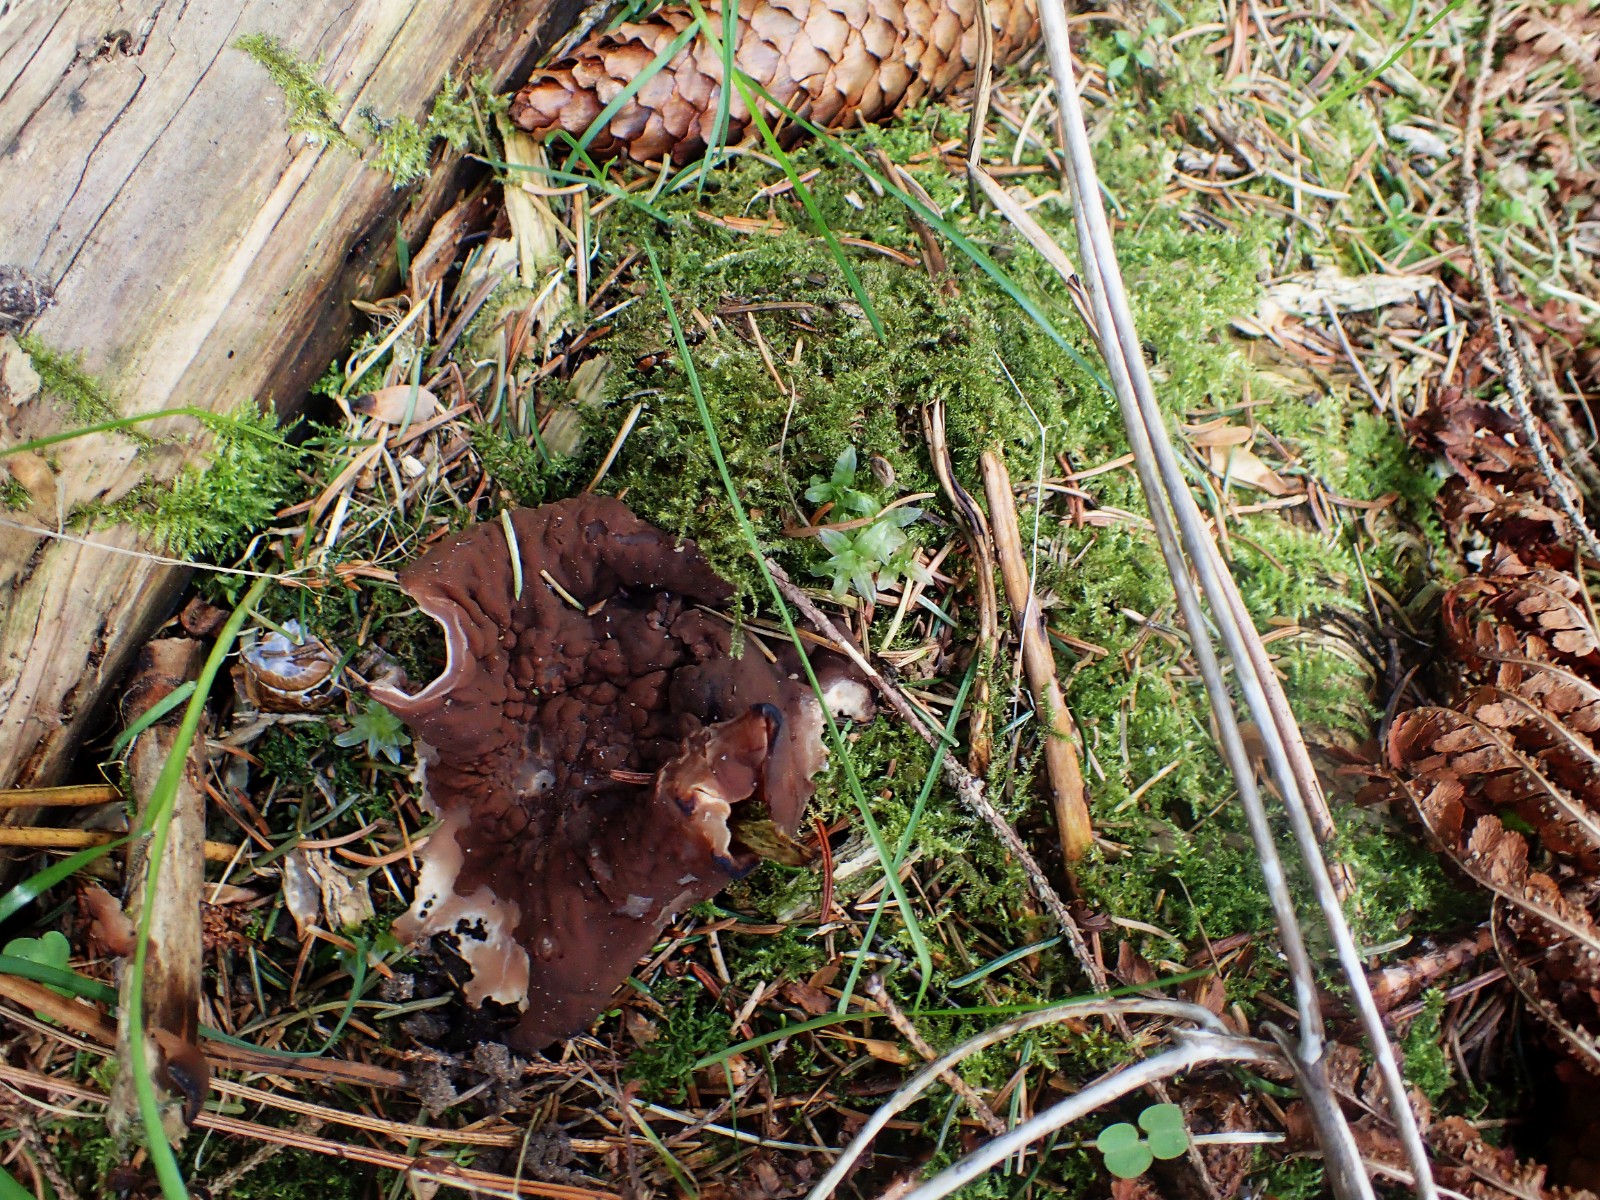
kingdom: Fungi
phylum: Ascomycota
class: Pezizomycetes
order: Pezizales
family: Discinaceae
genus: Discina
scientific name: Discina ancilis
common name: udbredt stenmorkel
